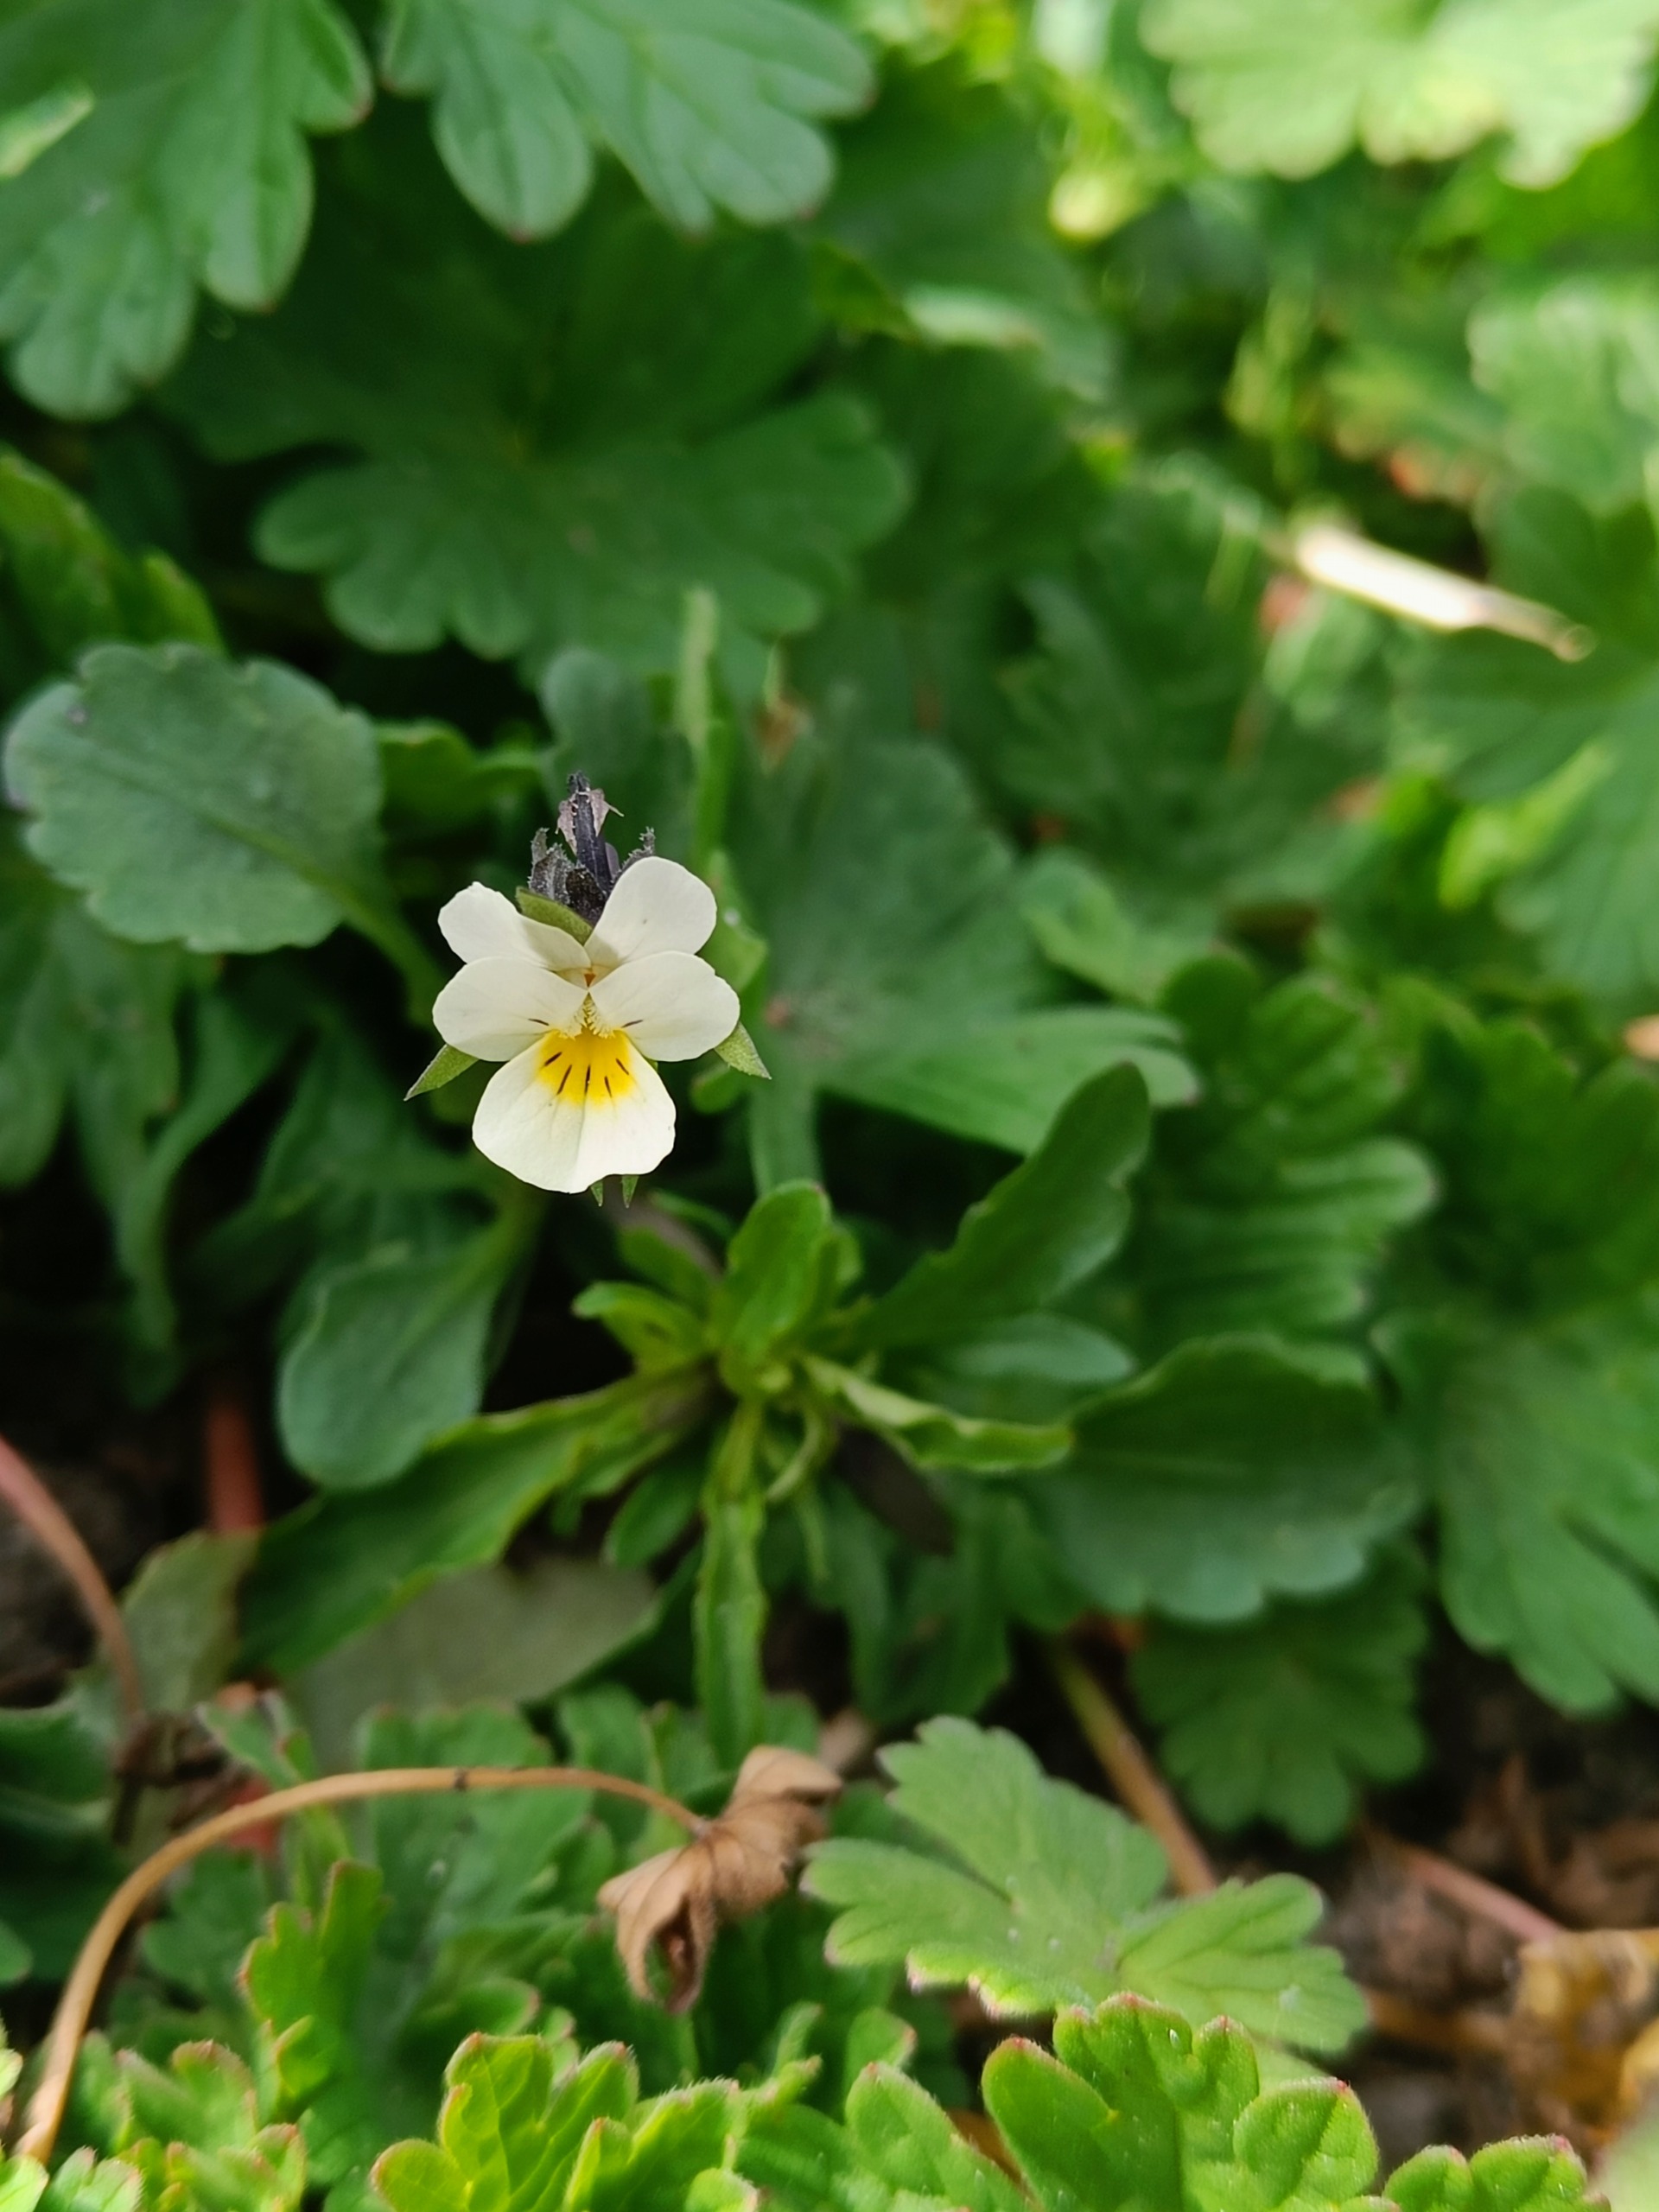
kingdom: Plantae
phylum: Tracheophyta
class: Magnoliopsida
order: Malpighiales
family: Violaceae
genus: Viola
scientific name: Viola arvensis
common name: Ager-stedmoderblomst
